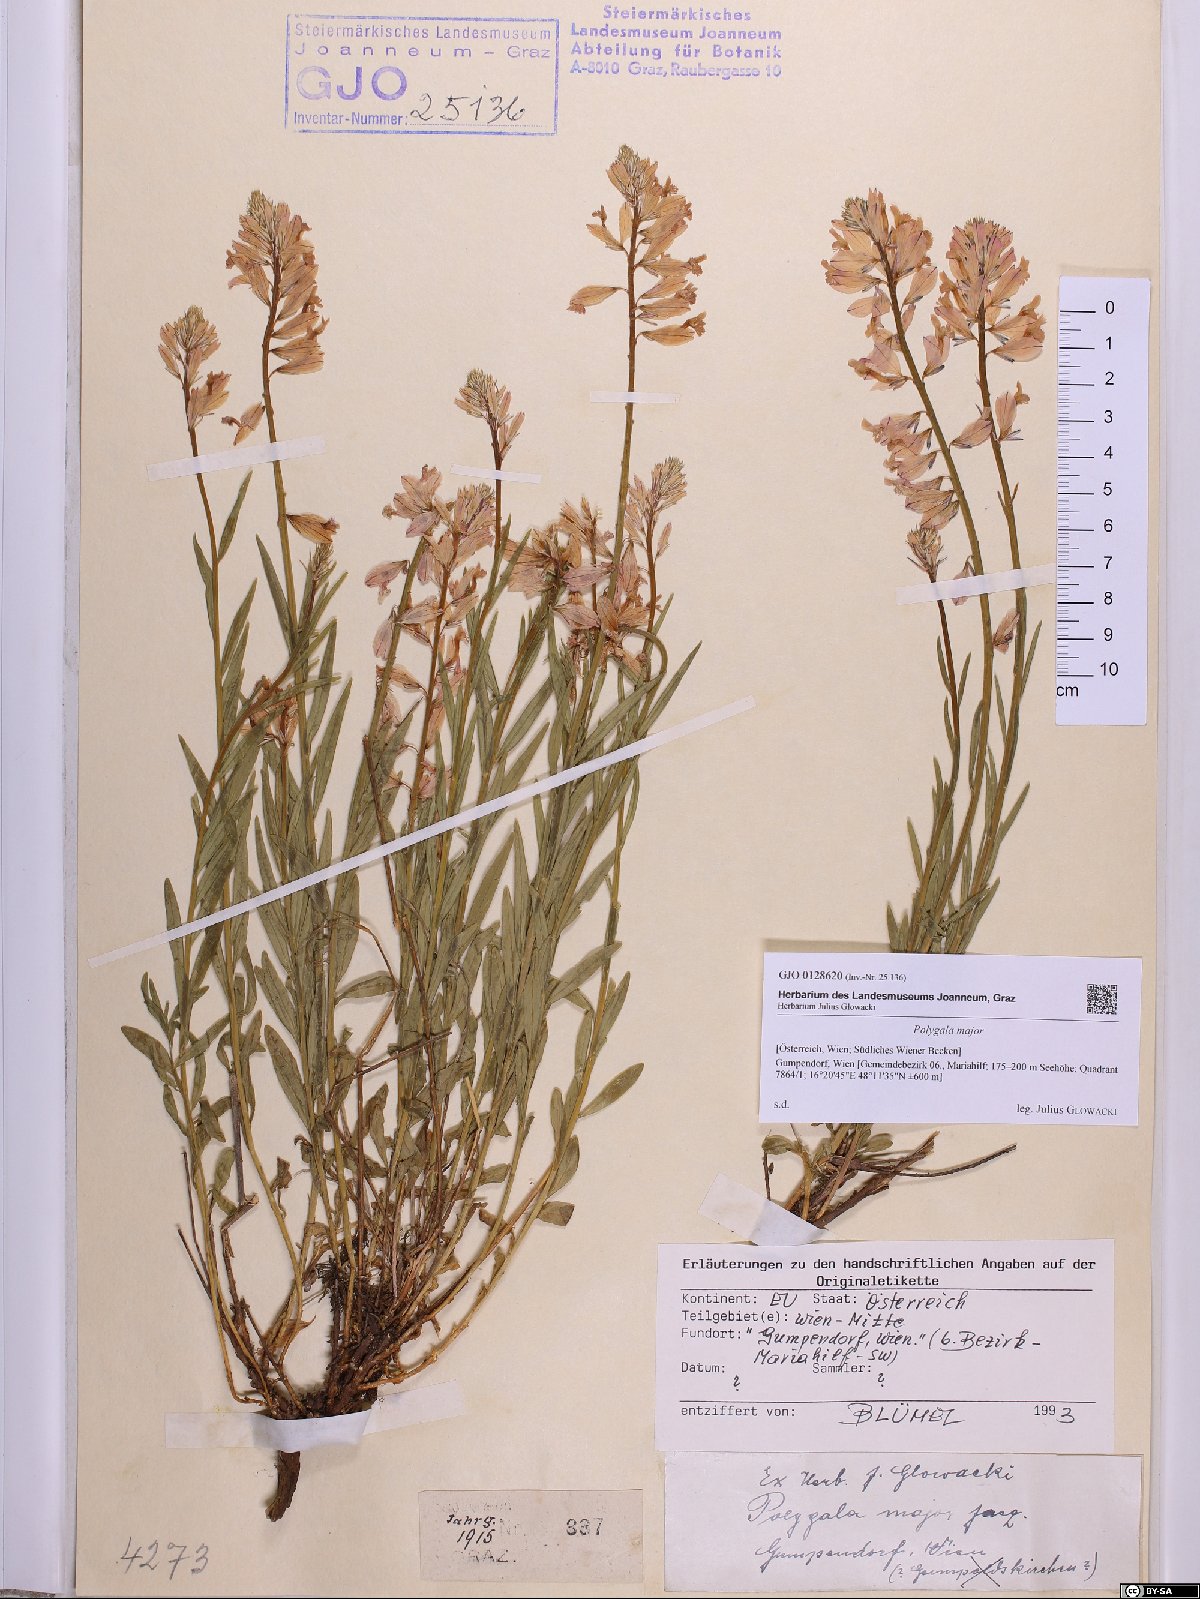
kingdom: Plantae
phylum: Tracheophyta
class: Magnoliopsida
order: Fabales
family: Polygalaceae
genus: Polygala
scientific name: Polygala major
